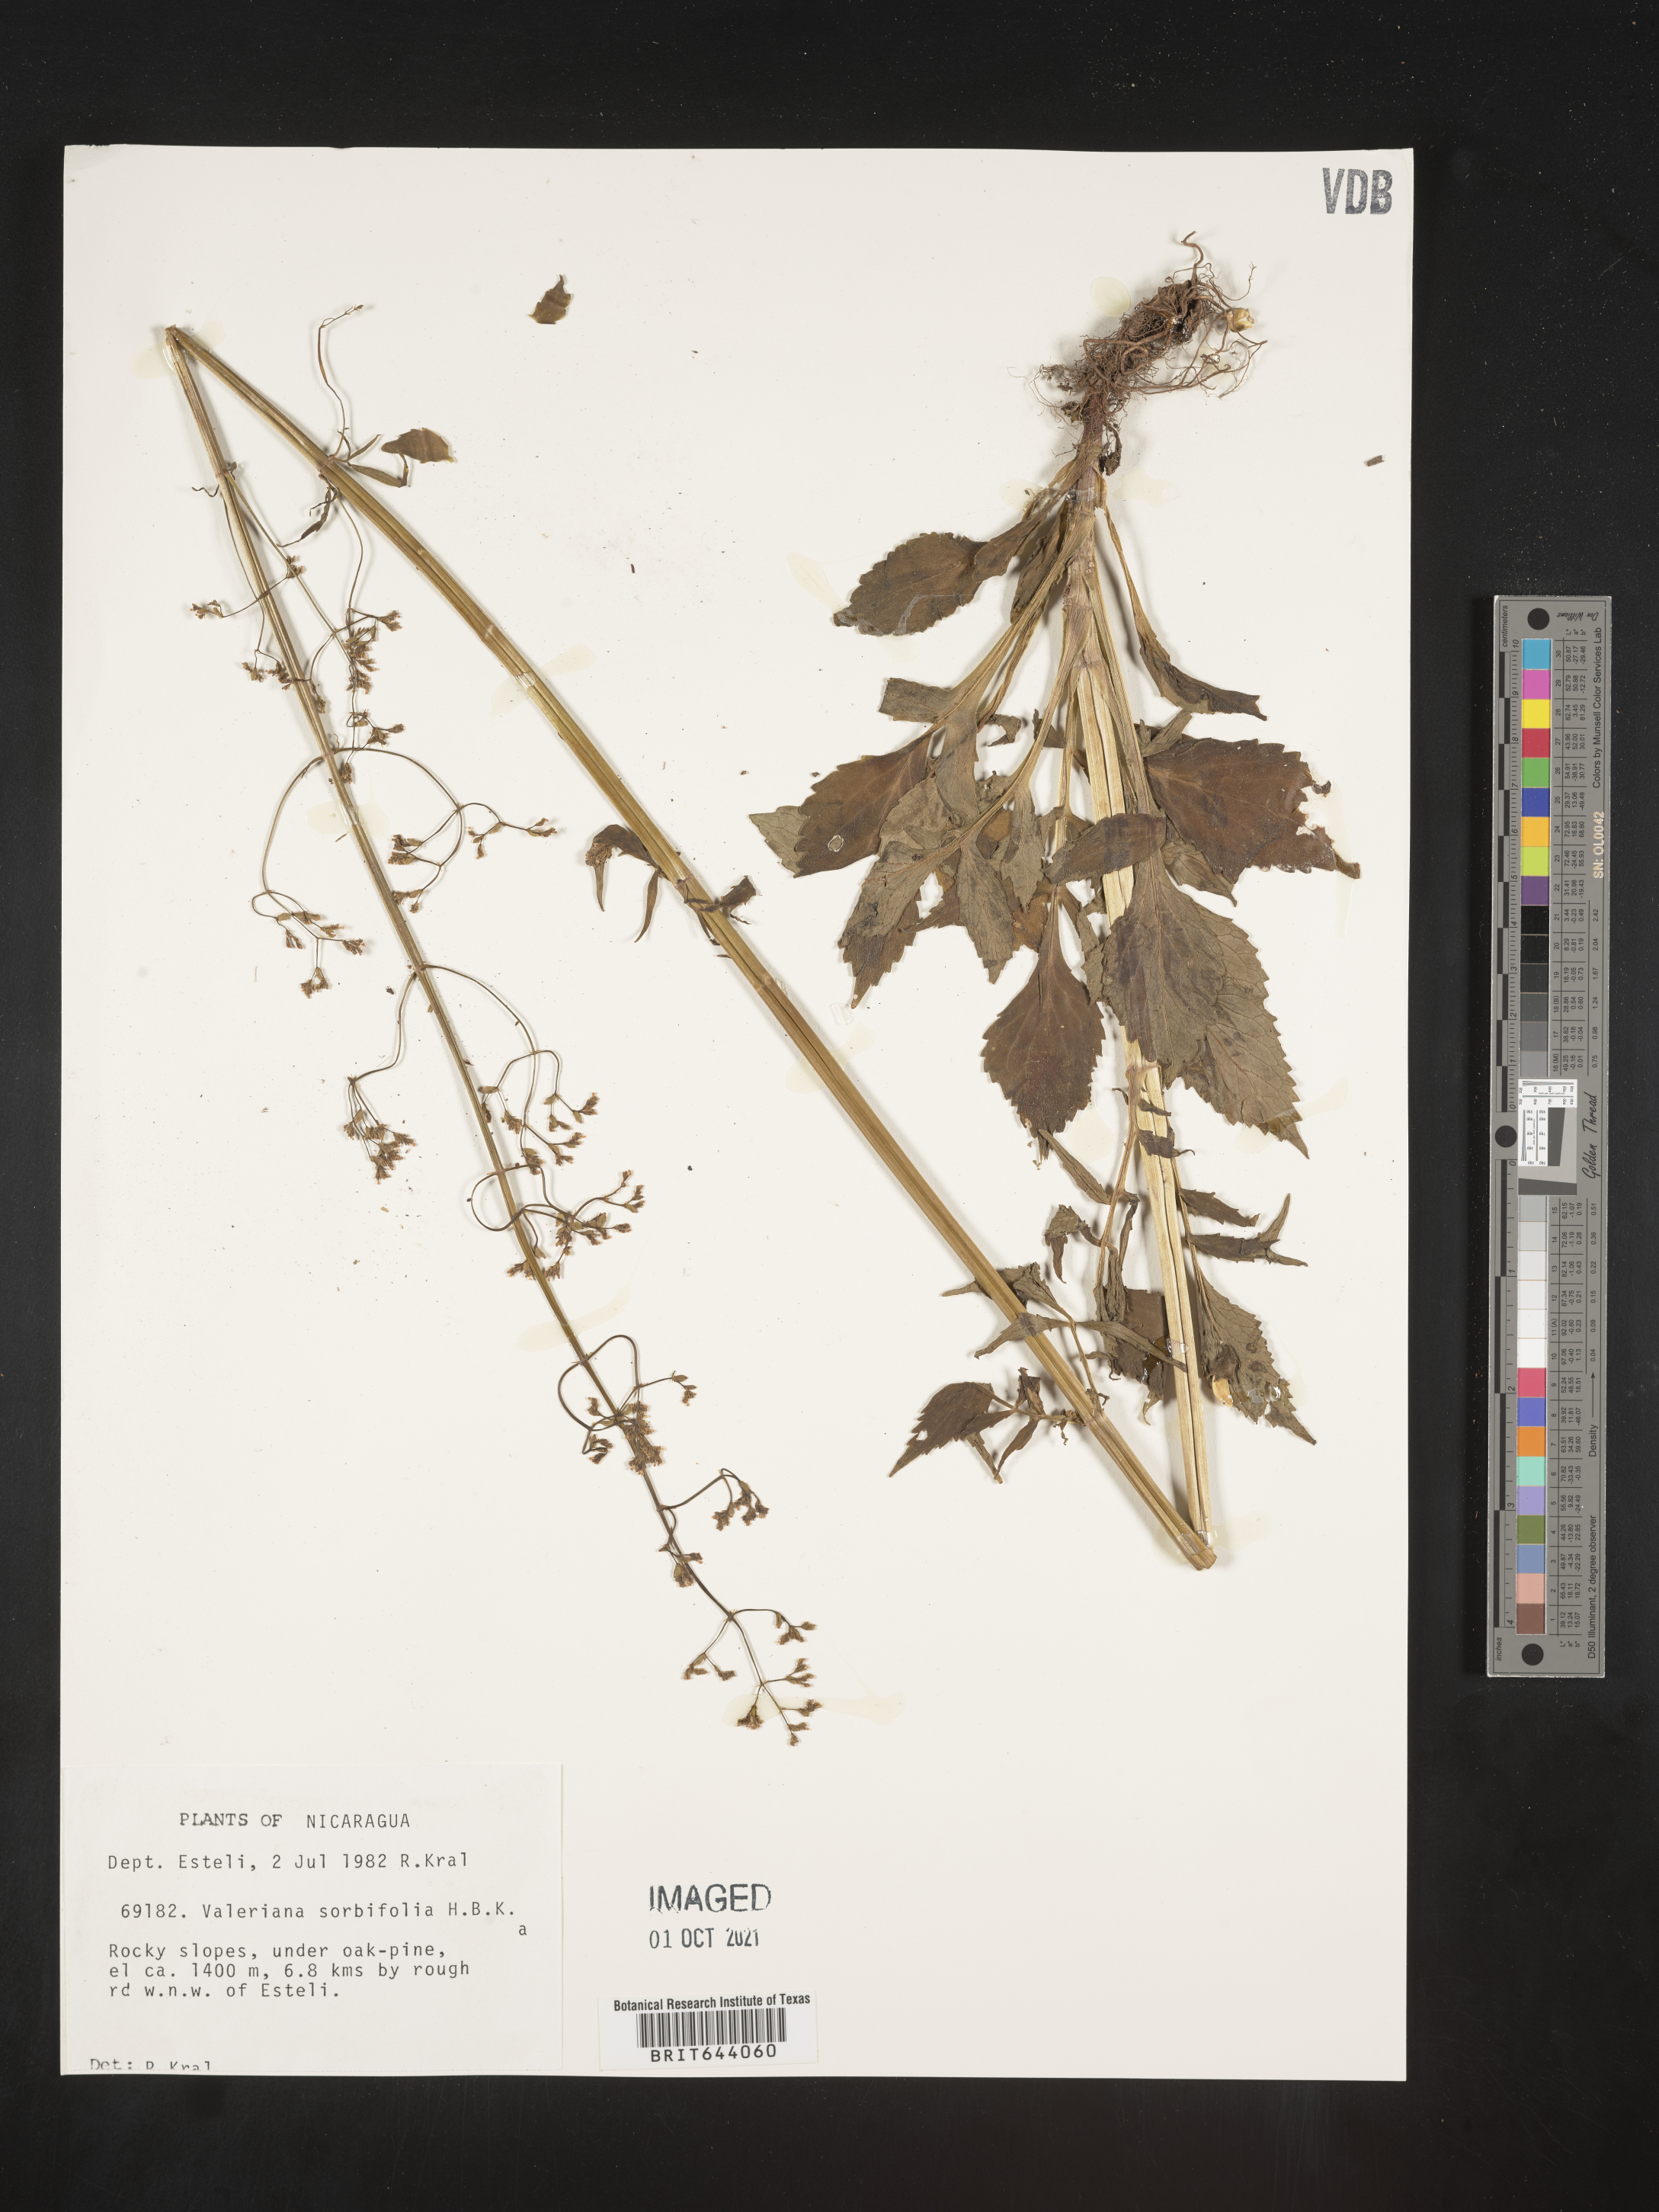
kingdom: Plantae
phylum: Tracheophyta
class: Magnoliopsida
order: Dipsacales
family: Caprifoliaceae
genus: Valeriana
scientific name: Valeriana sorbifolia
